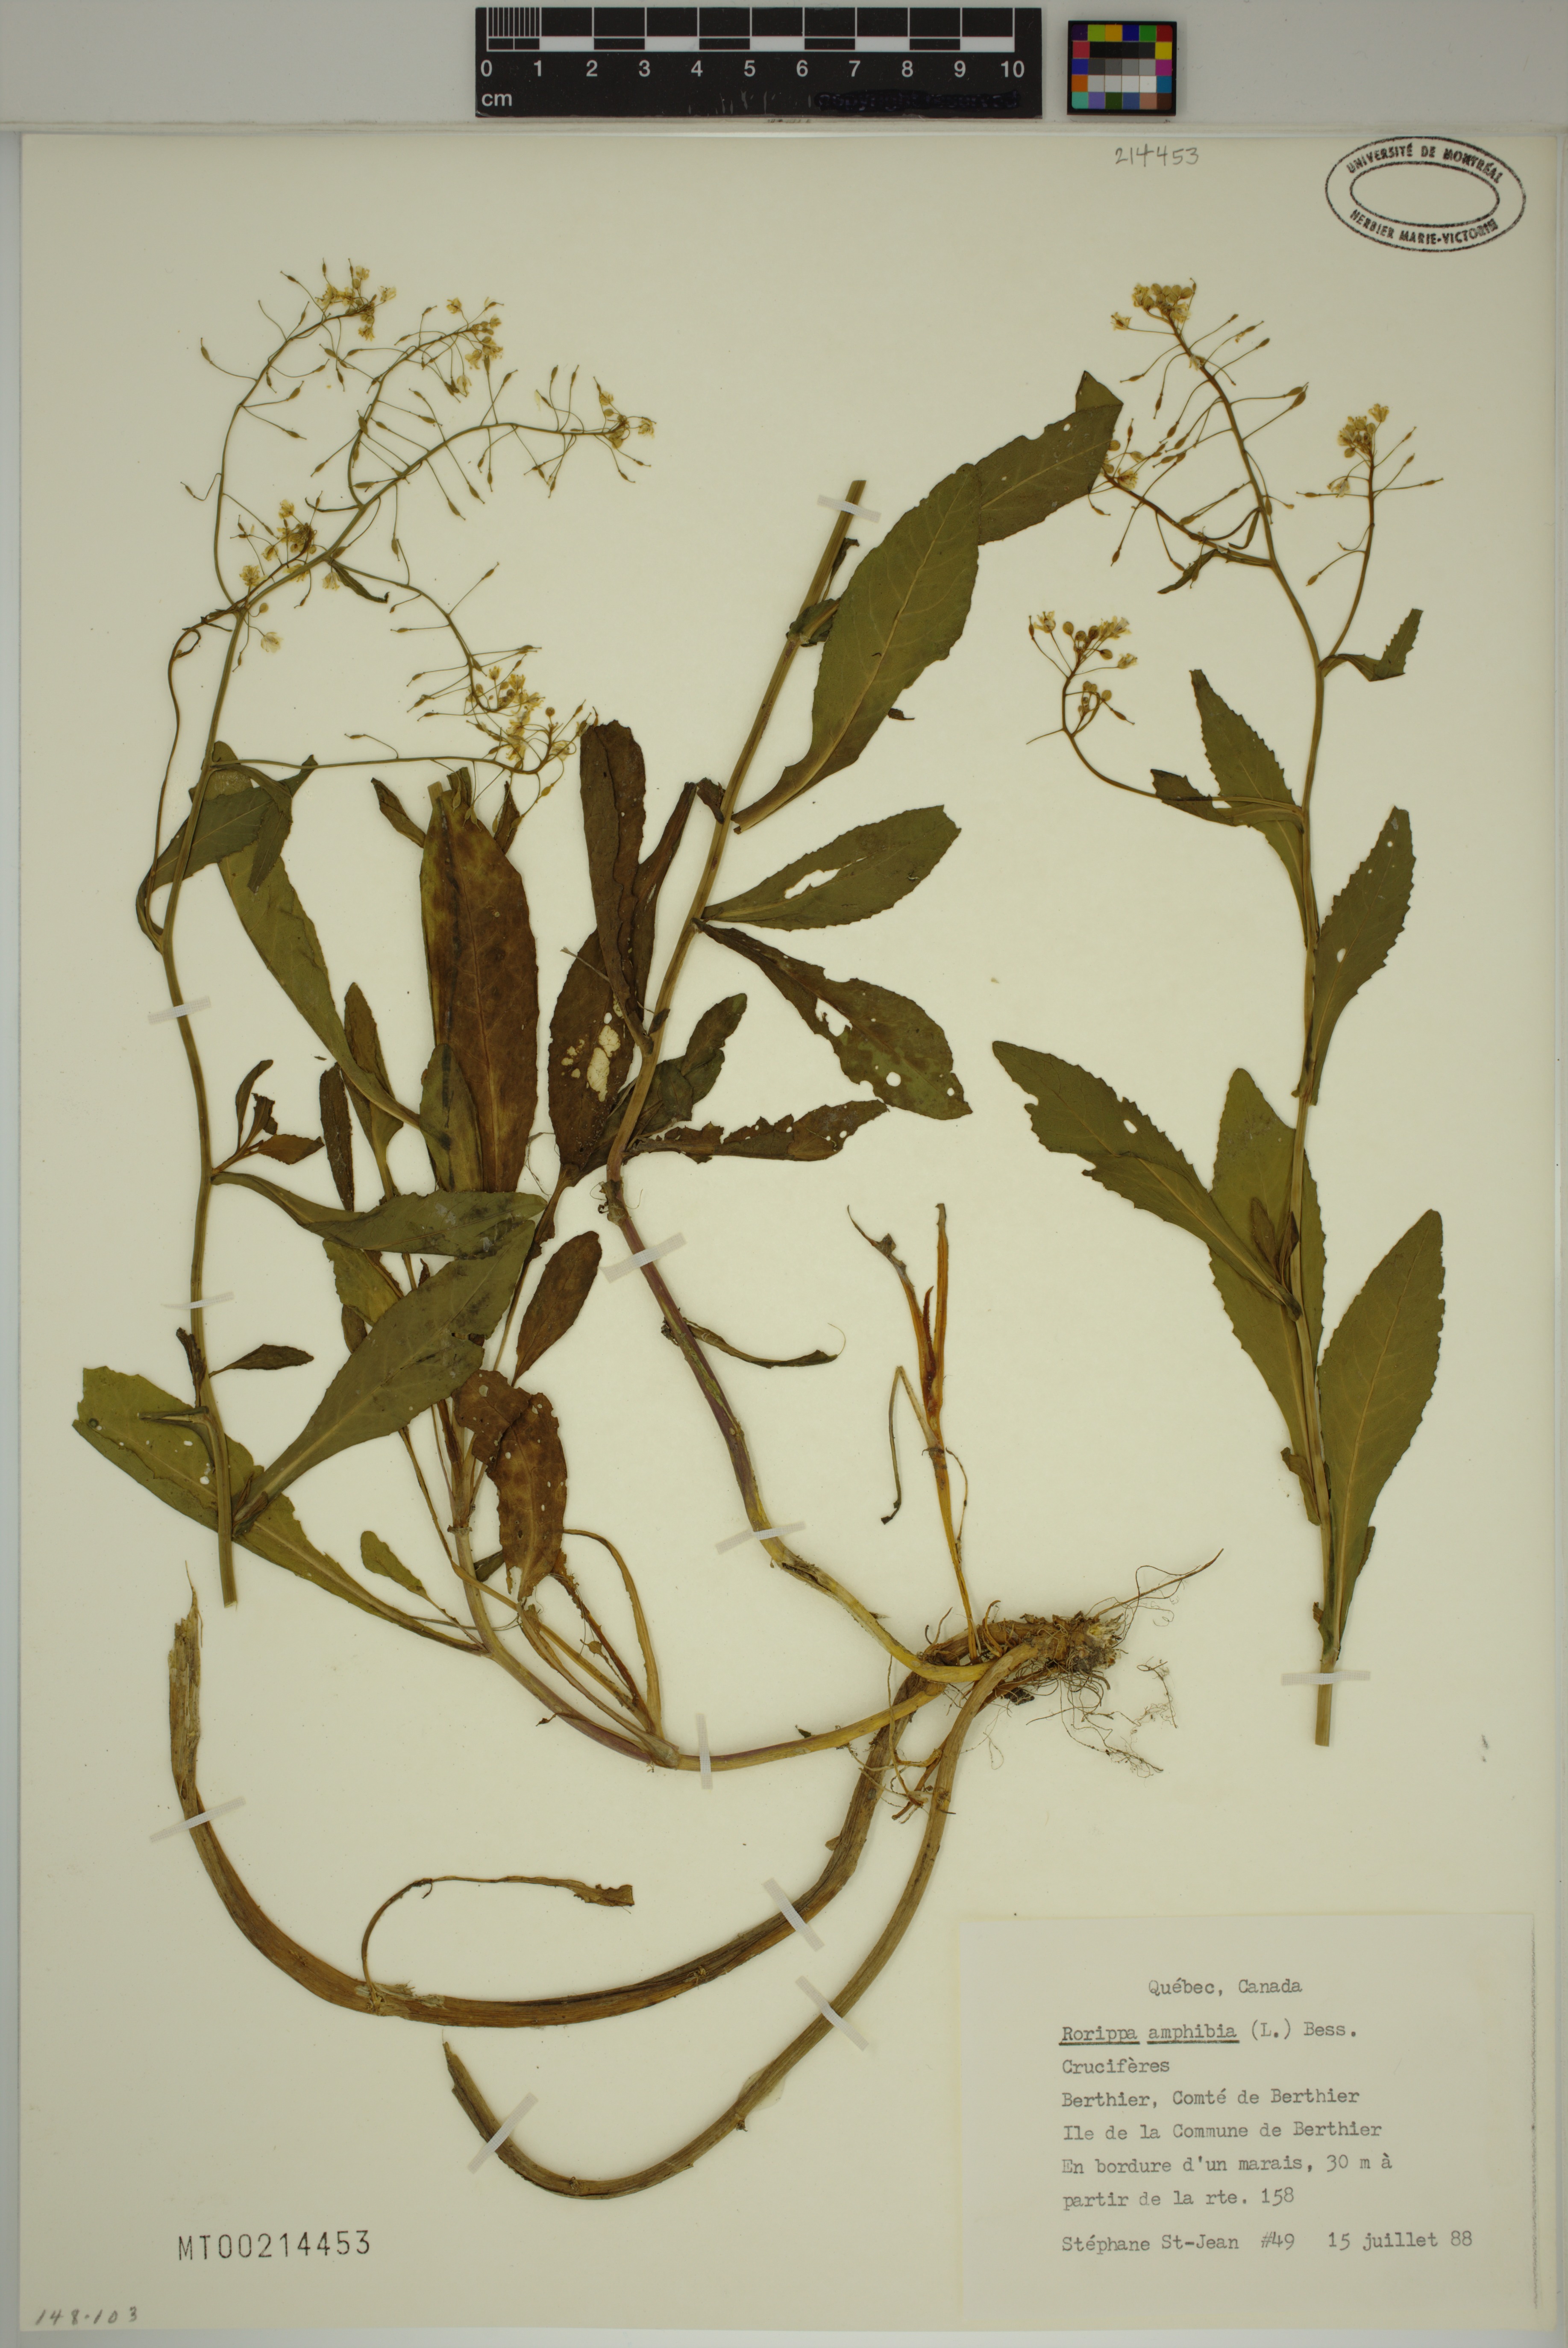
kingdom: Plantae
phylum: Tracheophyta
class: Magnoliopsida
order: Brassicales
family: Brassicaceae
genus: Rorippa
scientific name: Rorippa amphibia
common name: Great yellow-cress
